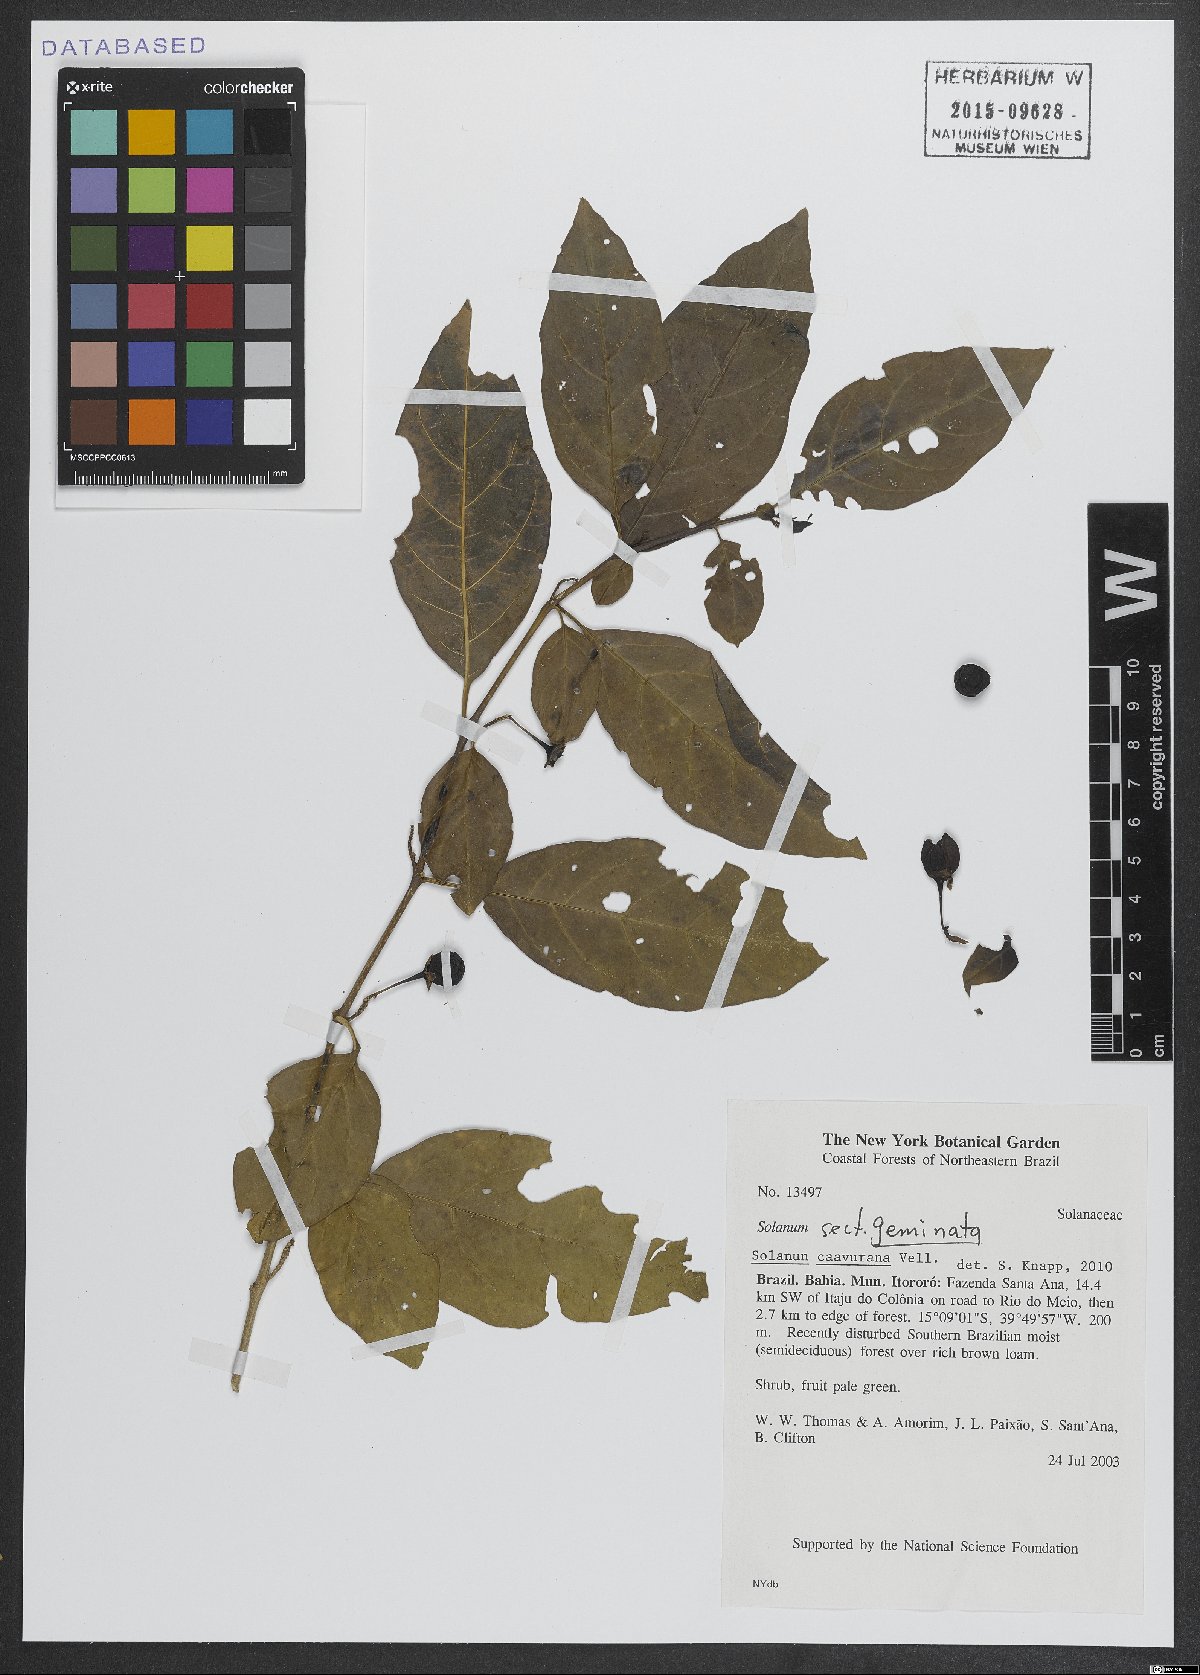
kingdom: Plantae
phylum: Tracheophyta
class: Magnoliopsida
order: Solanales
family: Solanaceae
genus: Solanum
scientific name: Solanum caavurana
